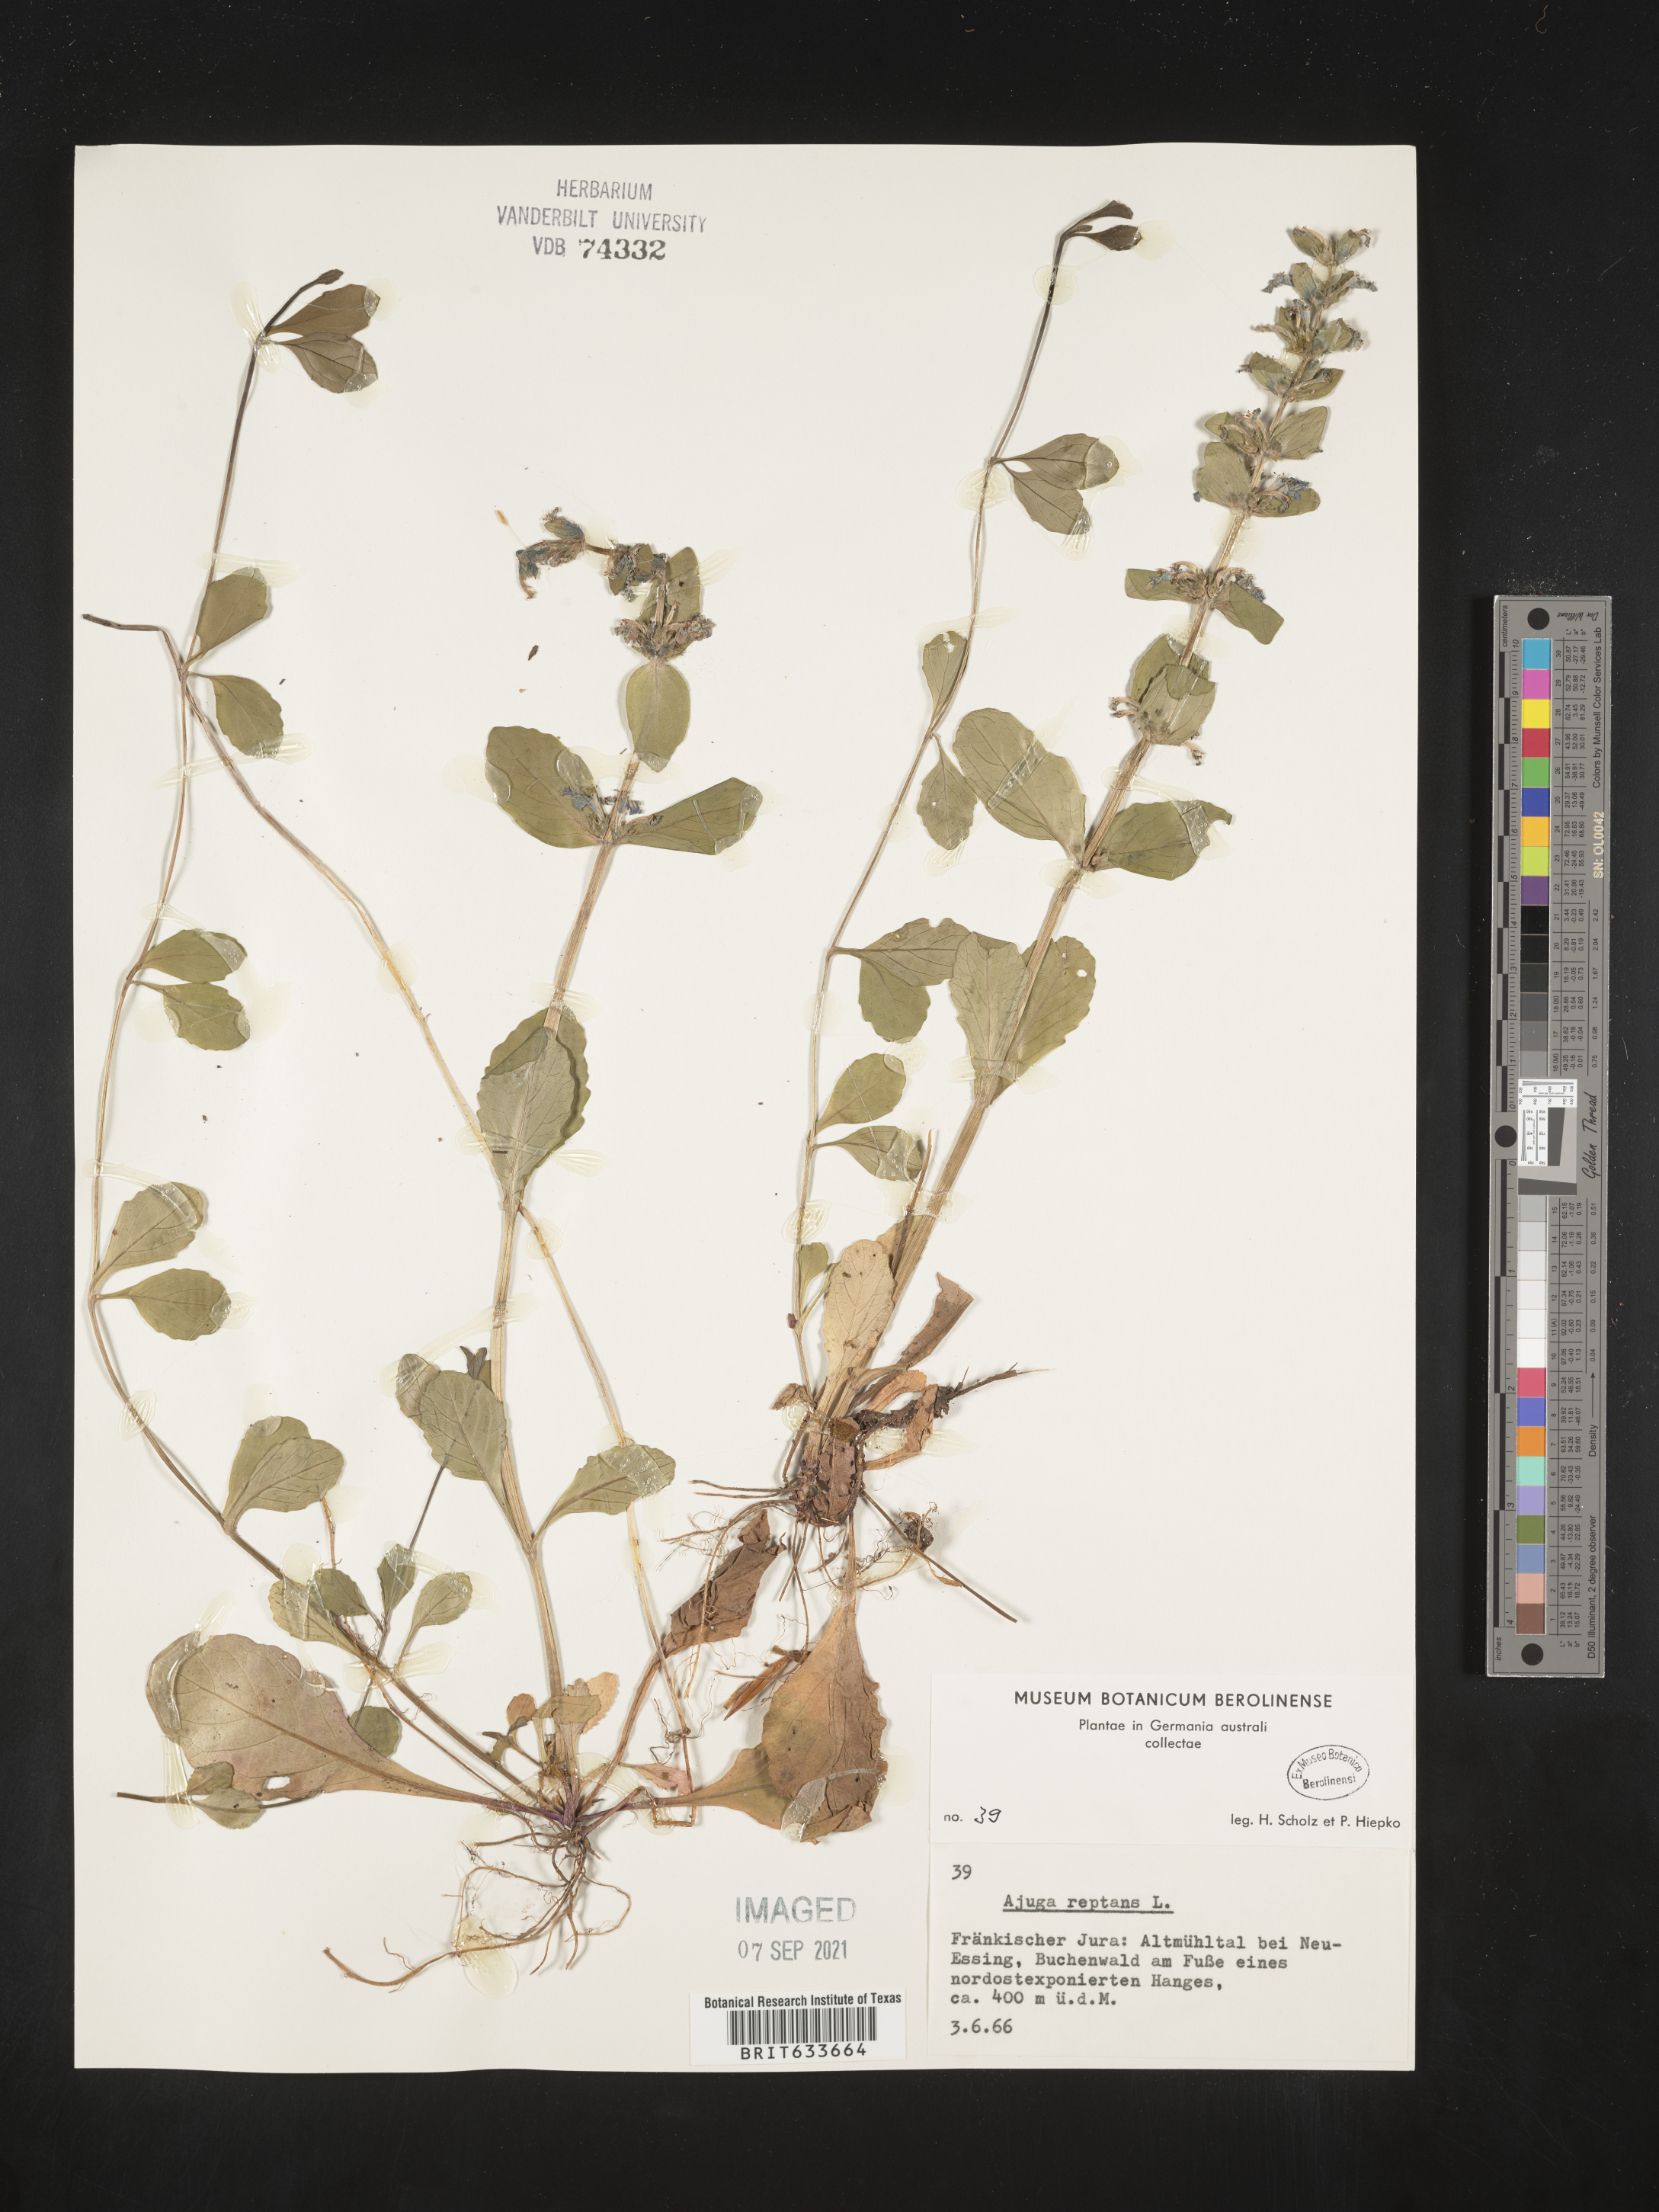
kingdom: Plantae
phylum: Tracheophyta
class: Magnoliopsida
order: Lamiales
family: Lamiaceae
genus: Ajuga
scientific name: Ajuga
